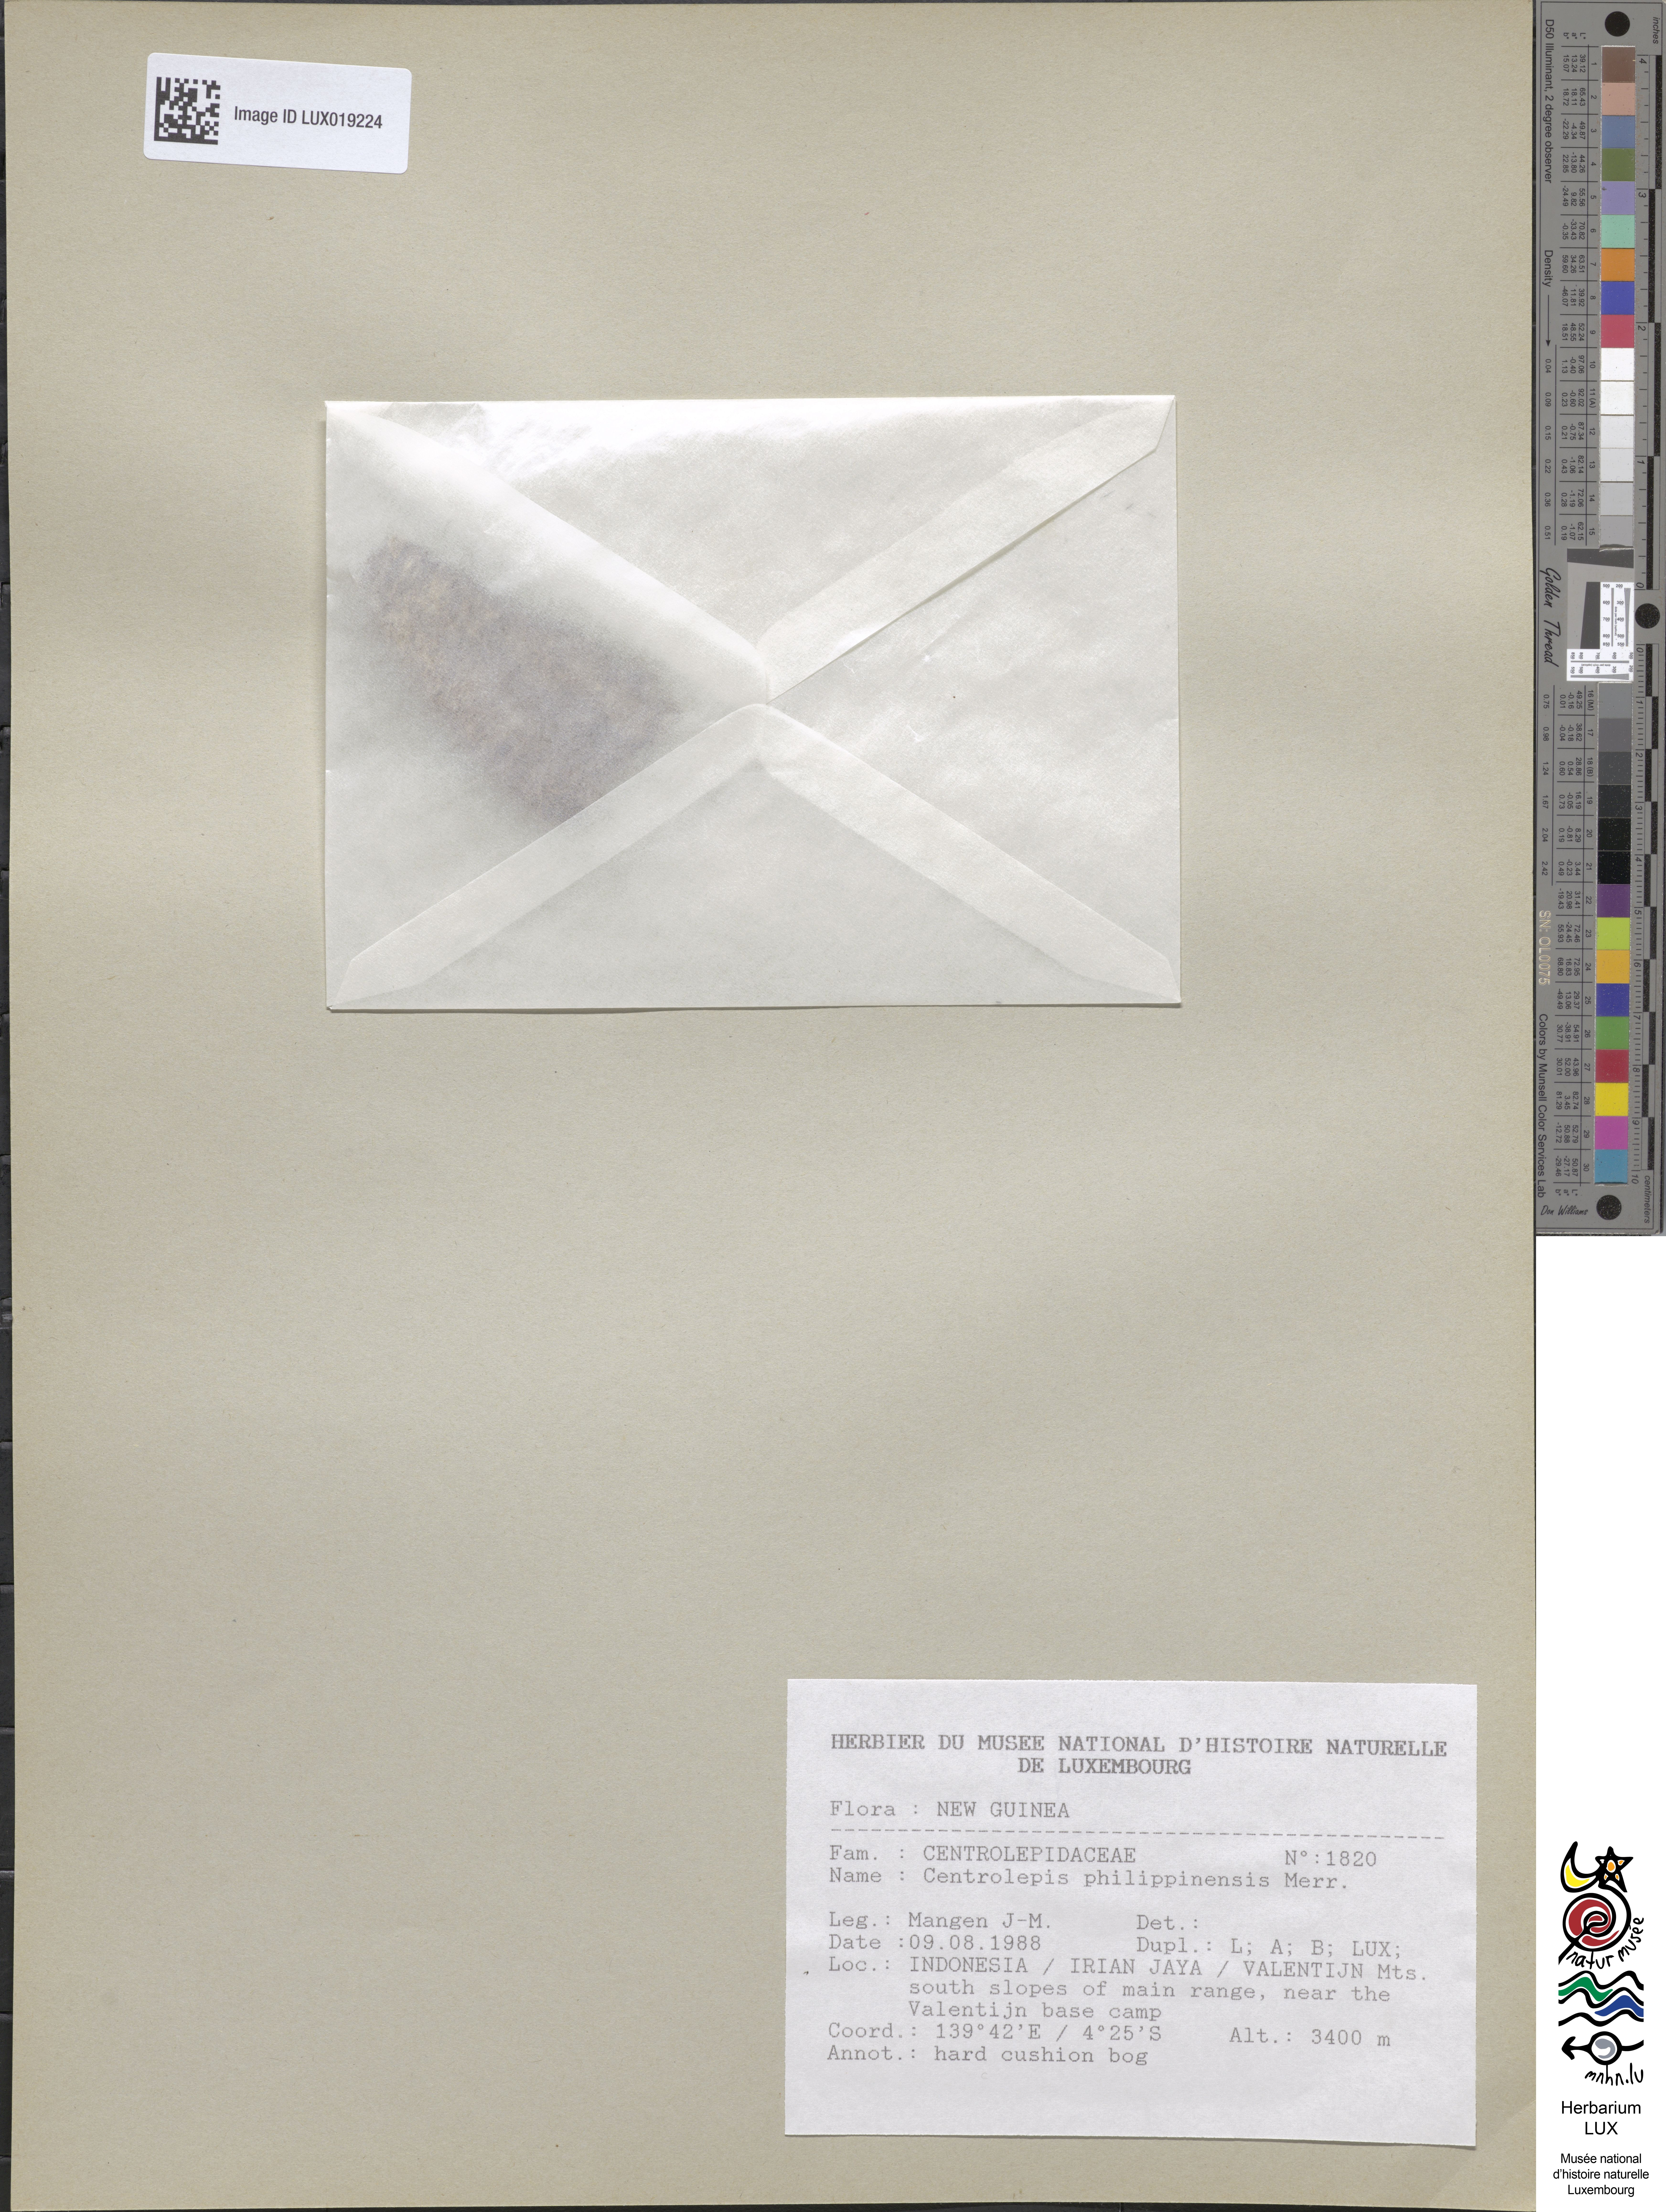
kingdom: Plantae
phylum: Tracheophyta
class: Liliopsida
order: Poales
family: Restionaceae
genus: Centrolepis
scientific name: Centrolepis philippinensis
